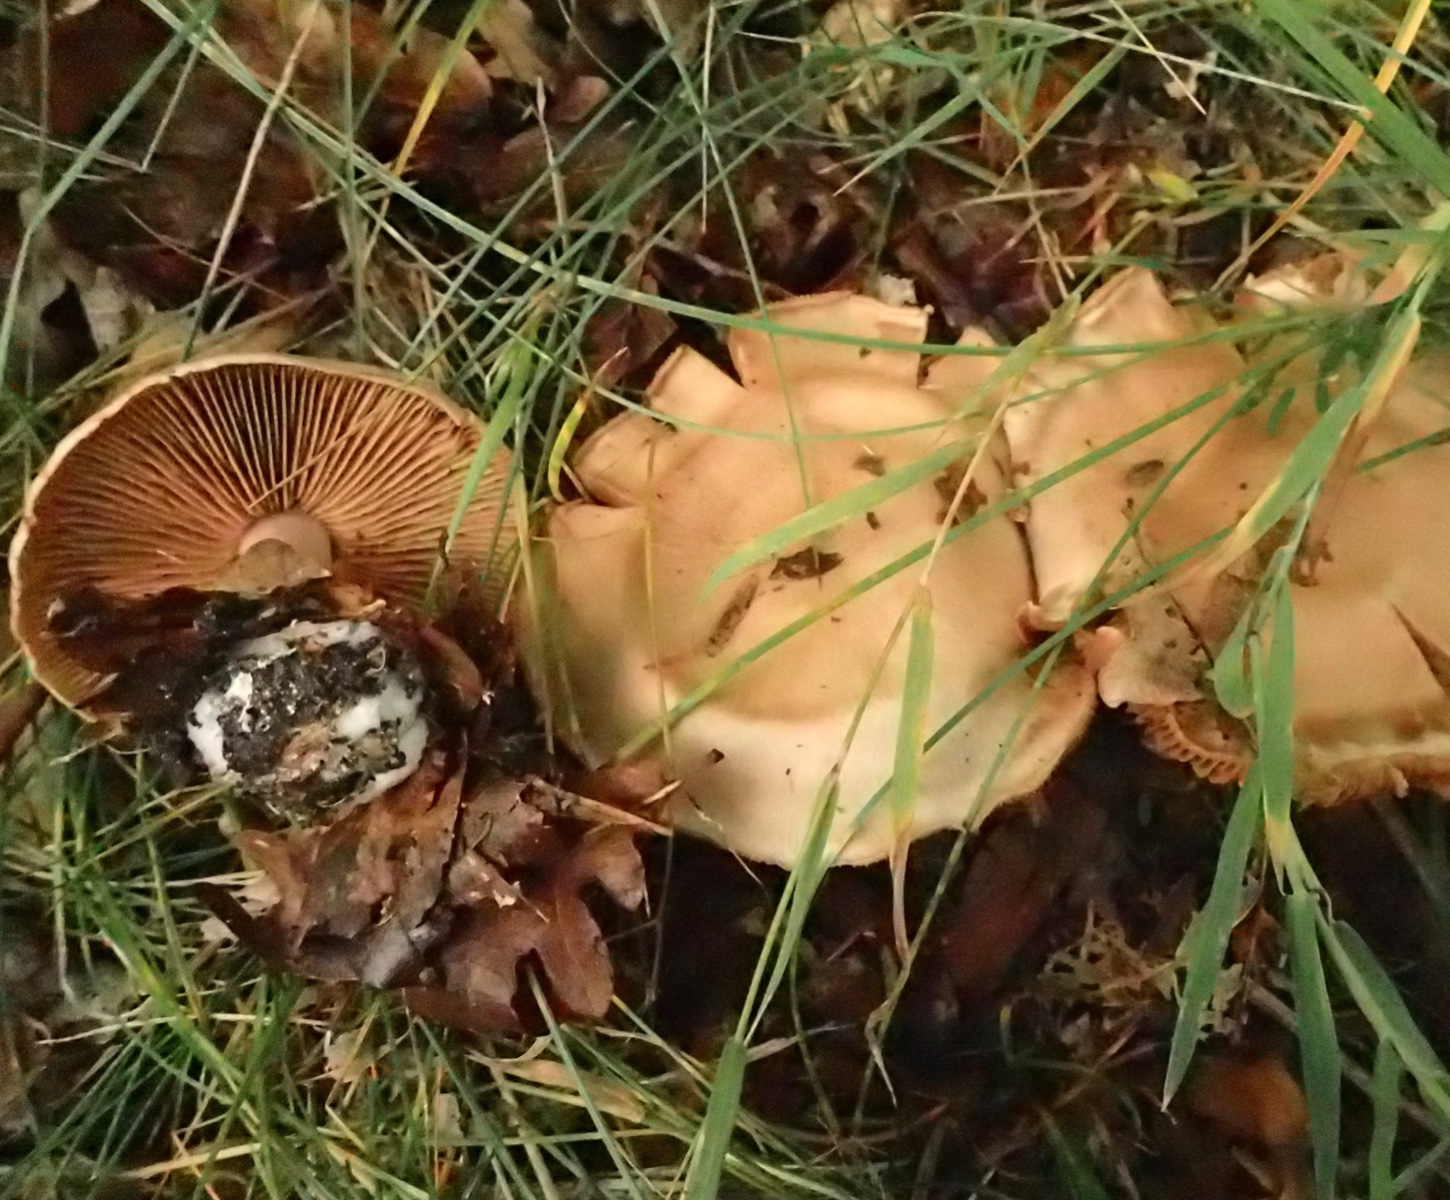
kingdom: Fungi
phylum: Basidiomycota
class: Agaricomycetes
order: Agaricales
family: Cortinariaceae
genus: Cortinarius
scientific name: Cortinarius
